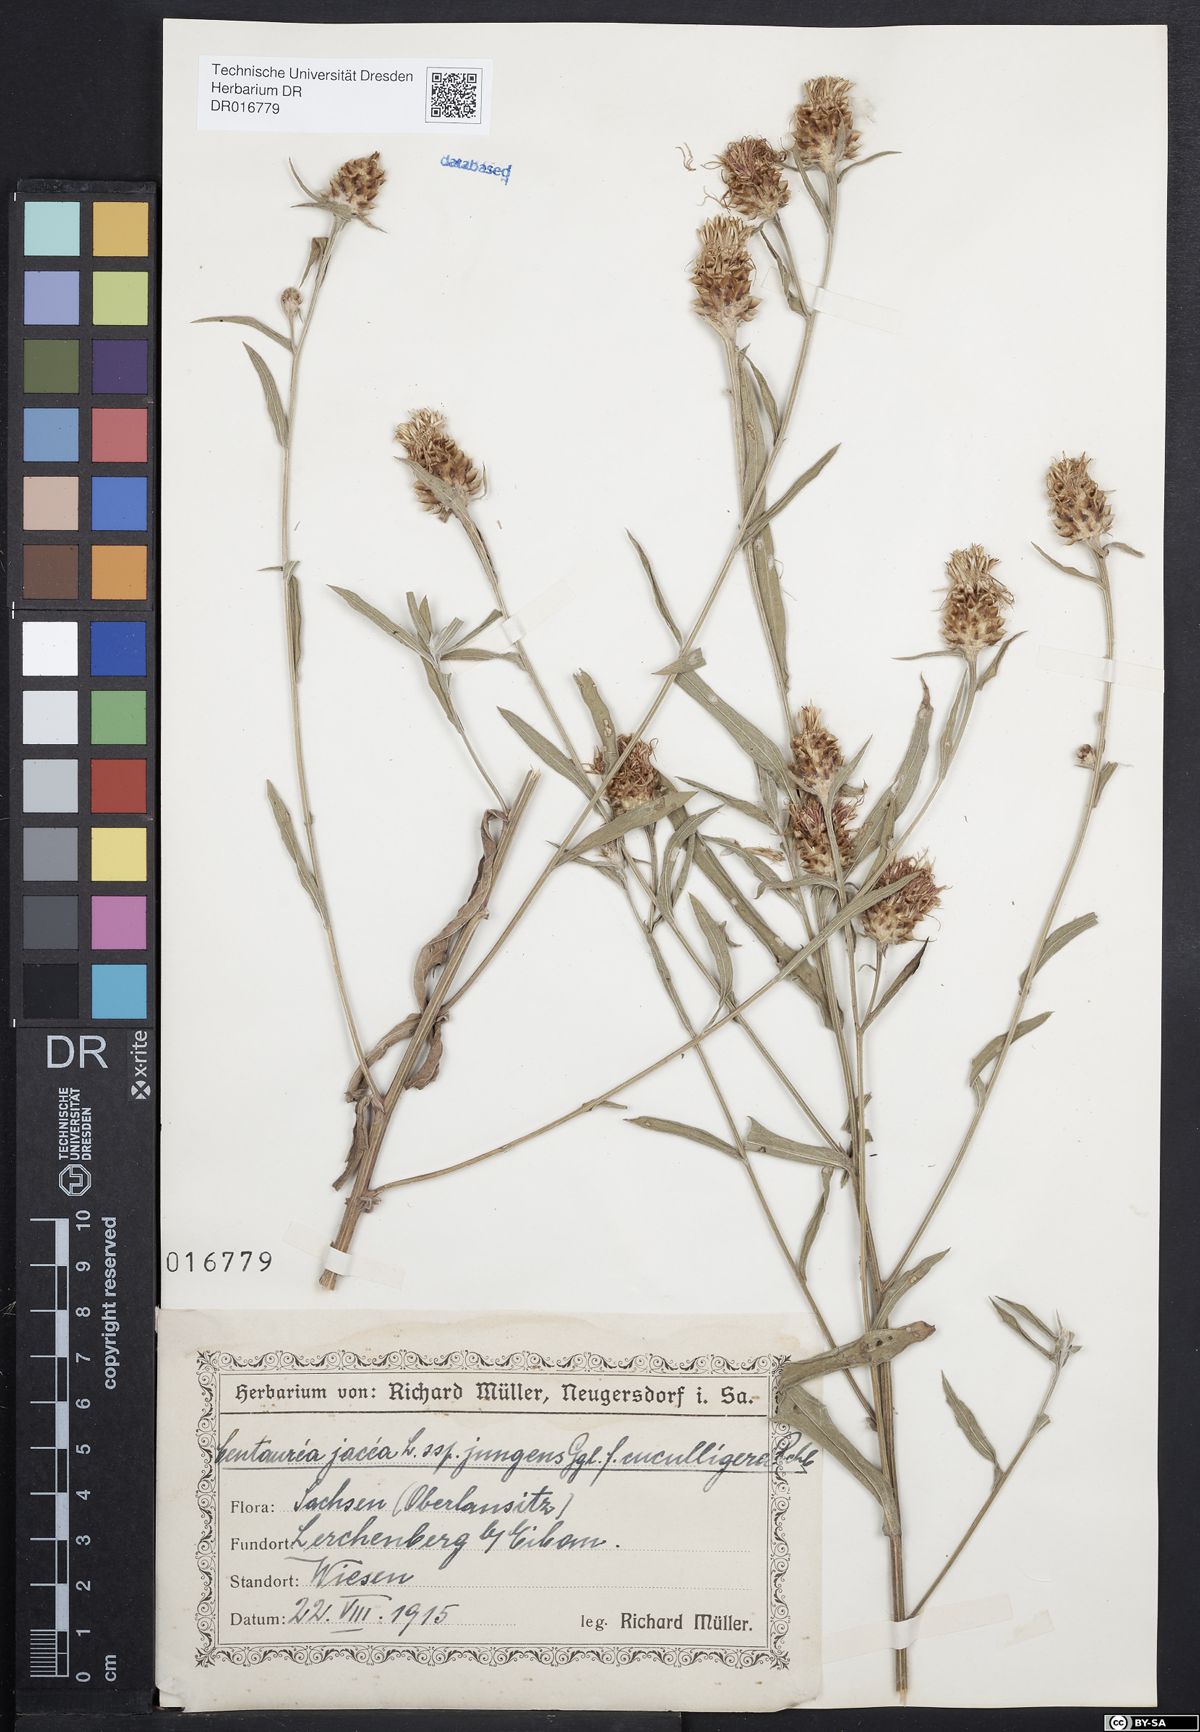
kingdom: Plantae
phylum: Tracheophyta
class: Magnoliopsida
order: Asterales
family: Asteraceae
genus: Centaurea
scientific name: Centaurea jacea
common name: Brown knapweed
